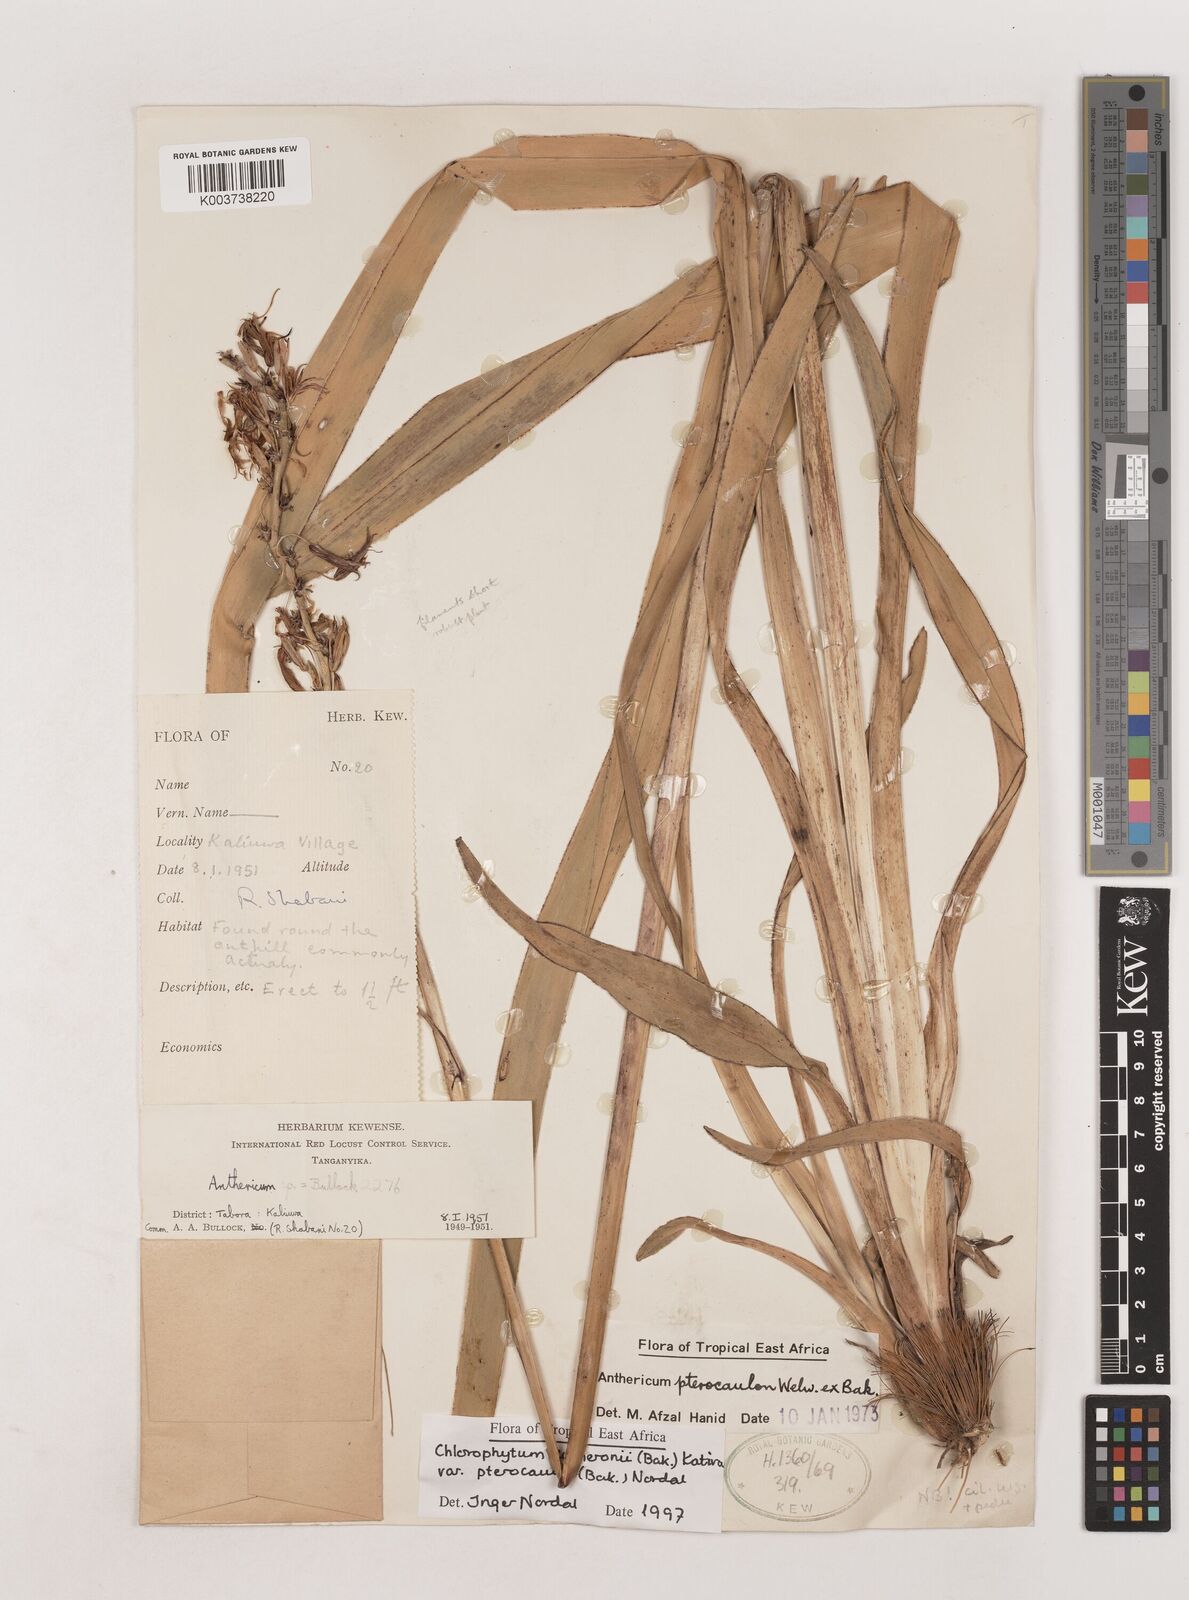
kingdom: Plantae
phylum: Tracheophyta
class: Liliopsida
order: Asparagales
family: Asparagaceae
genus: Chlorophytum
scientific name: Chlorophytum cameronii
